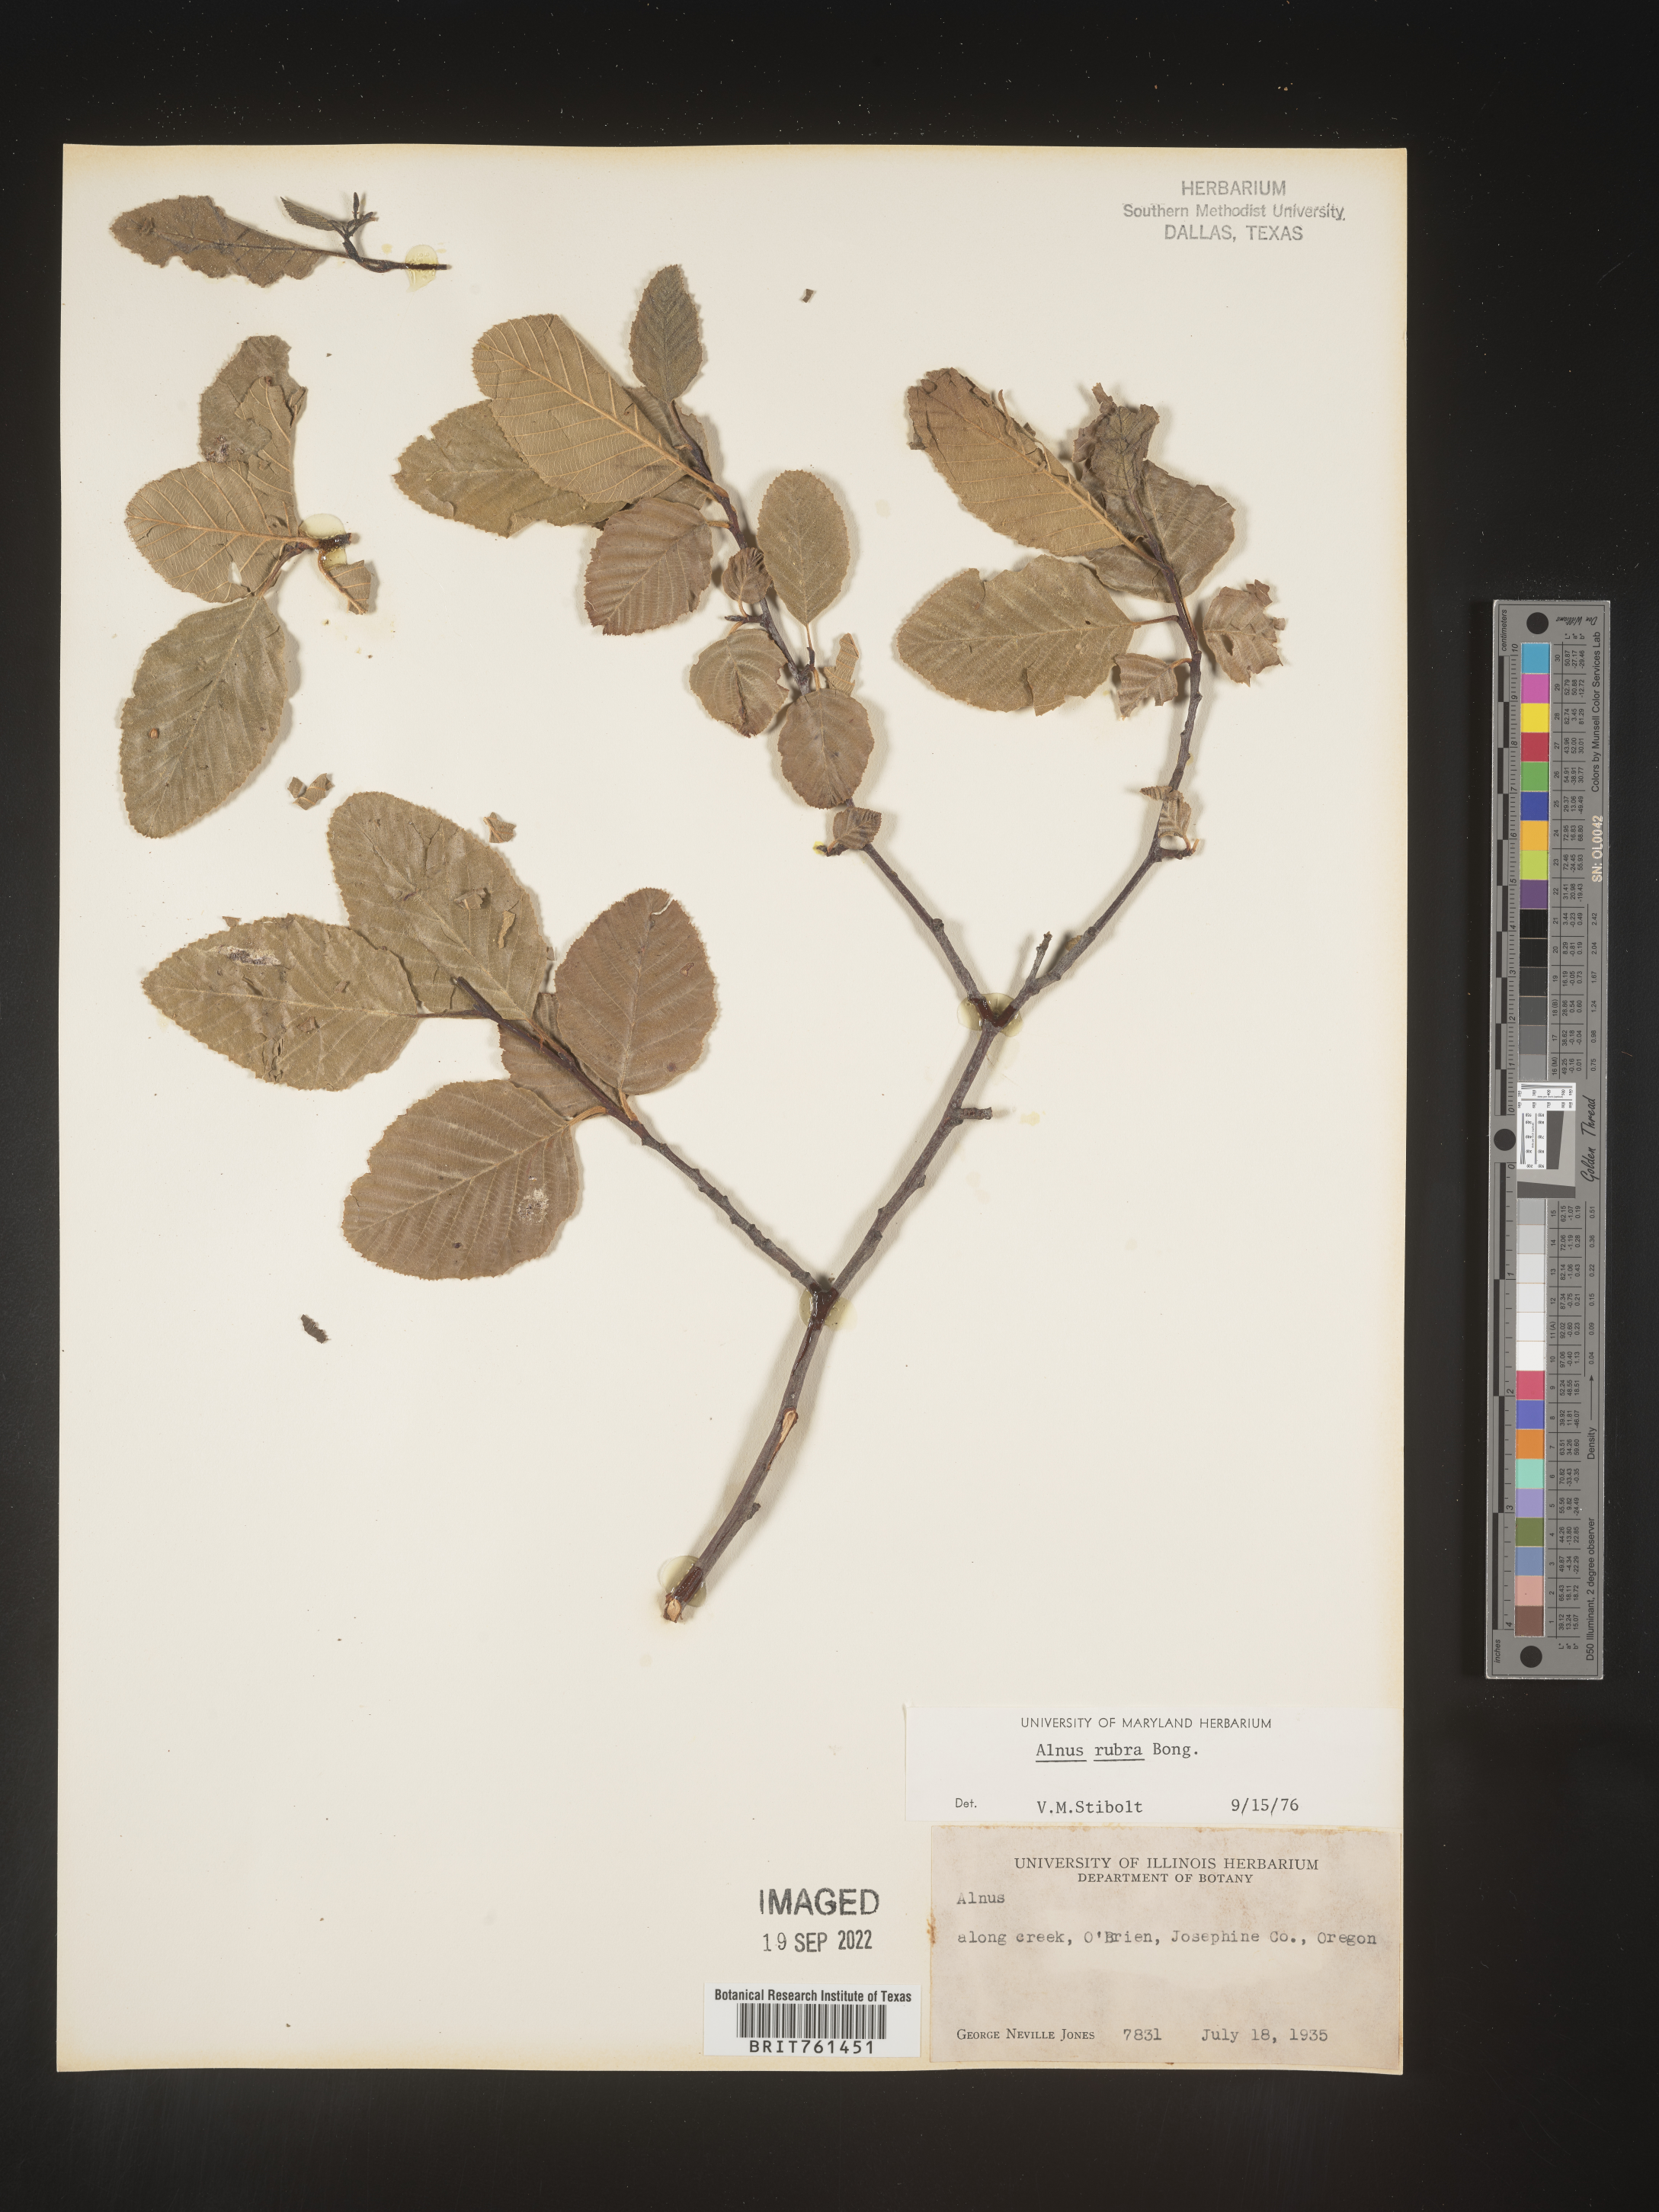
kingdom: Plantae
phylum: Tracheophyta
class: Magnoliopsida
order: Fagales
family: Betulaceae
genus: Alnus
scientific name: Alnus rubra
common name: Red alder
